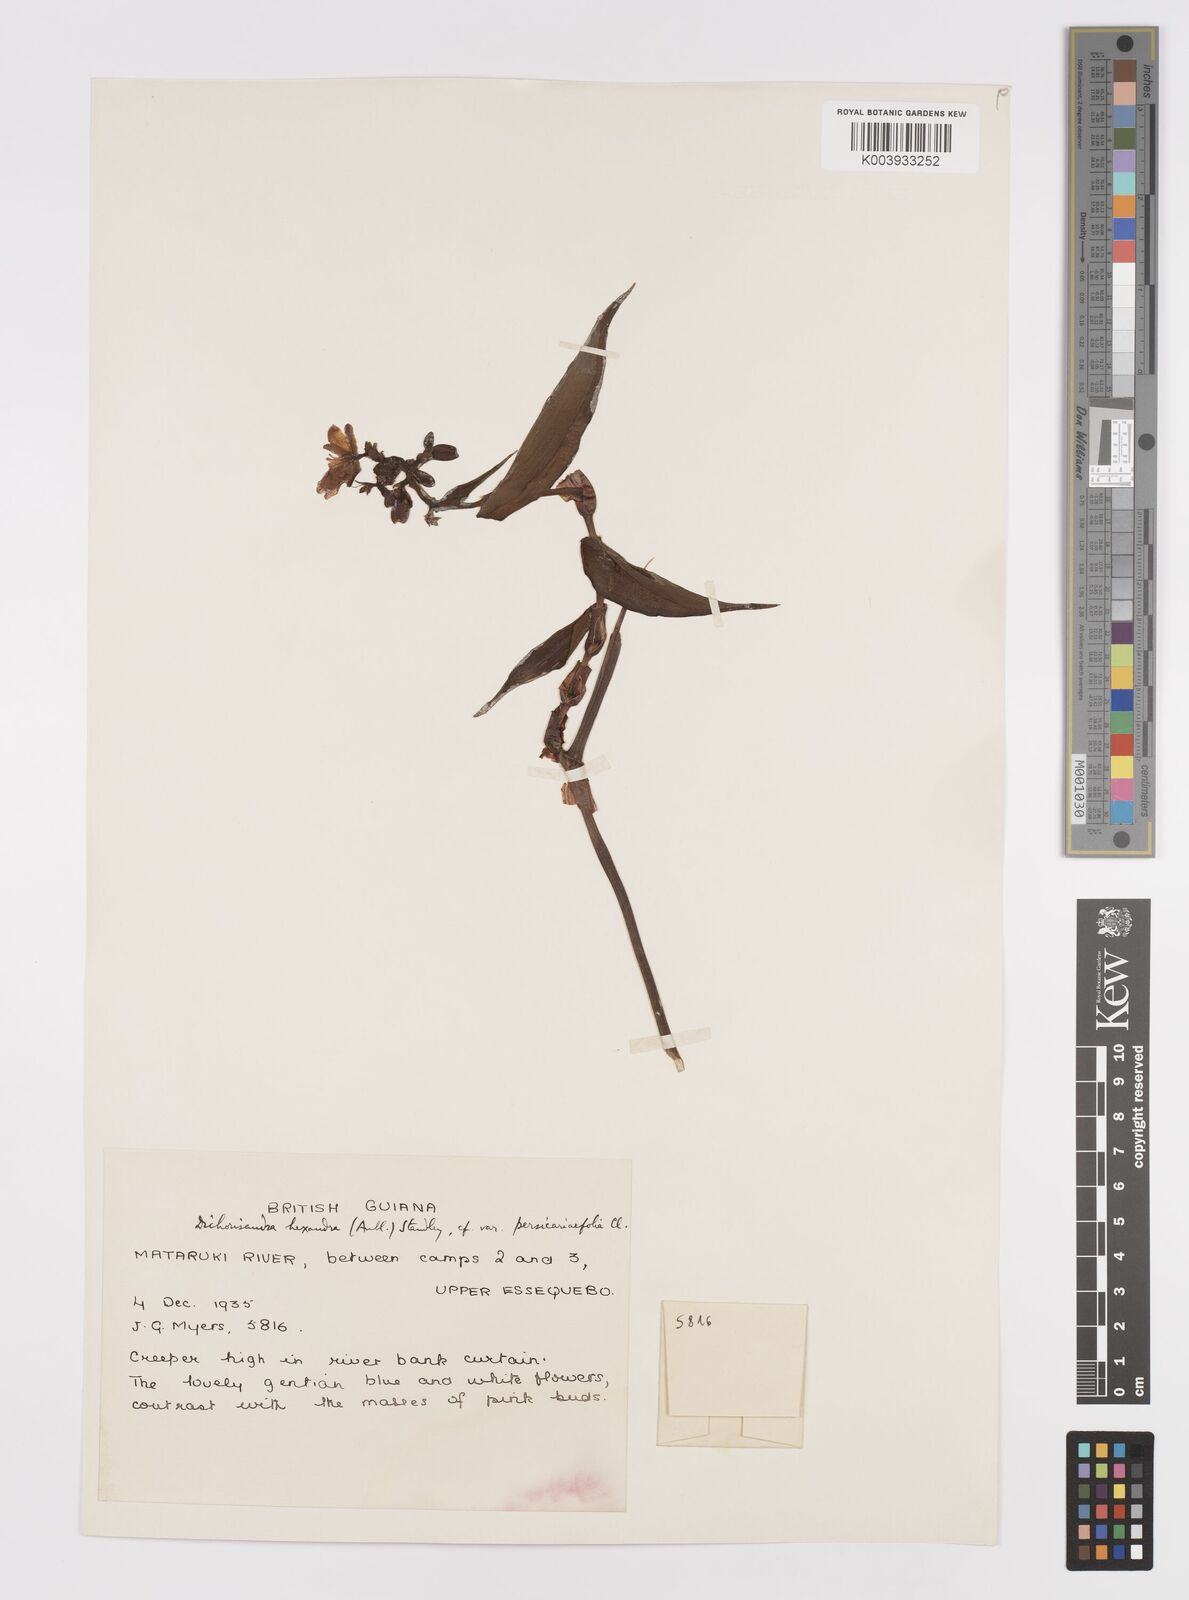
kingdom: Plantae
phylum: Tracheophyta
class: Liliopsida
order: Commelinales
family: Commelinaceae
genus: Dichorisandra
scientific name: Dichorisandra hexandra
